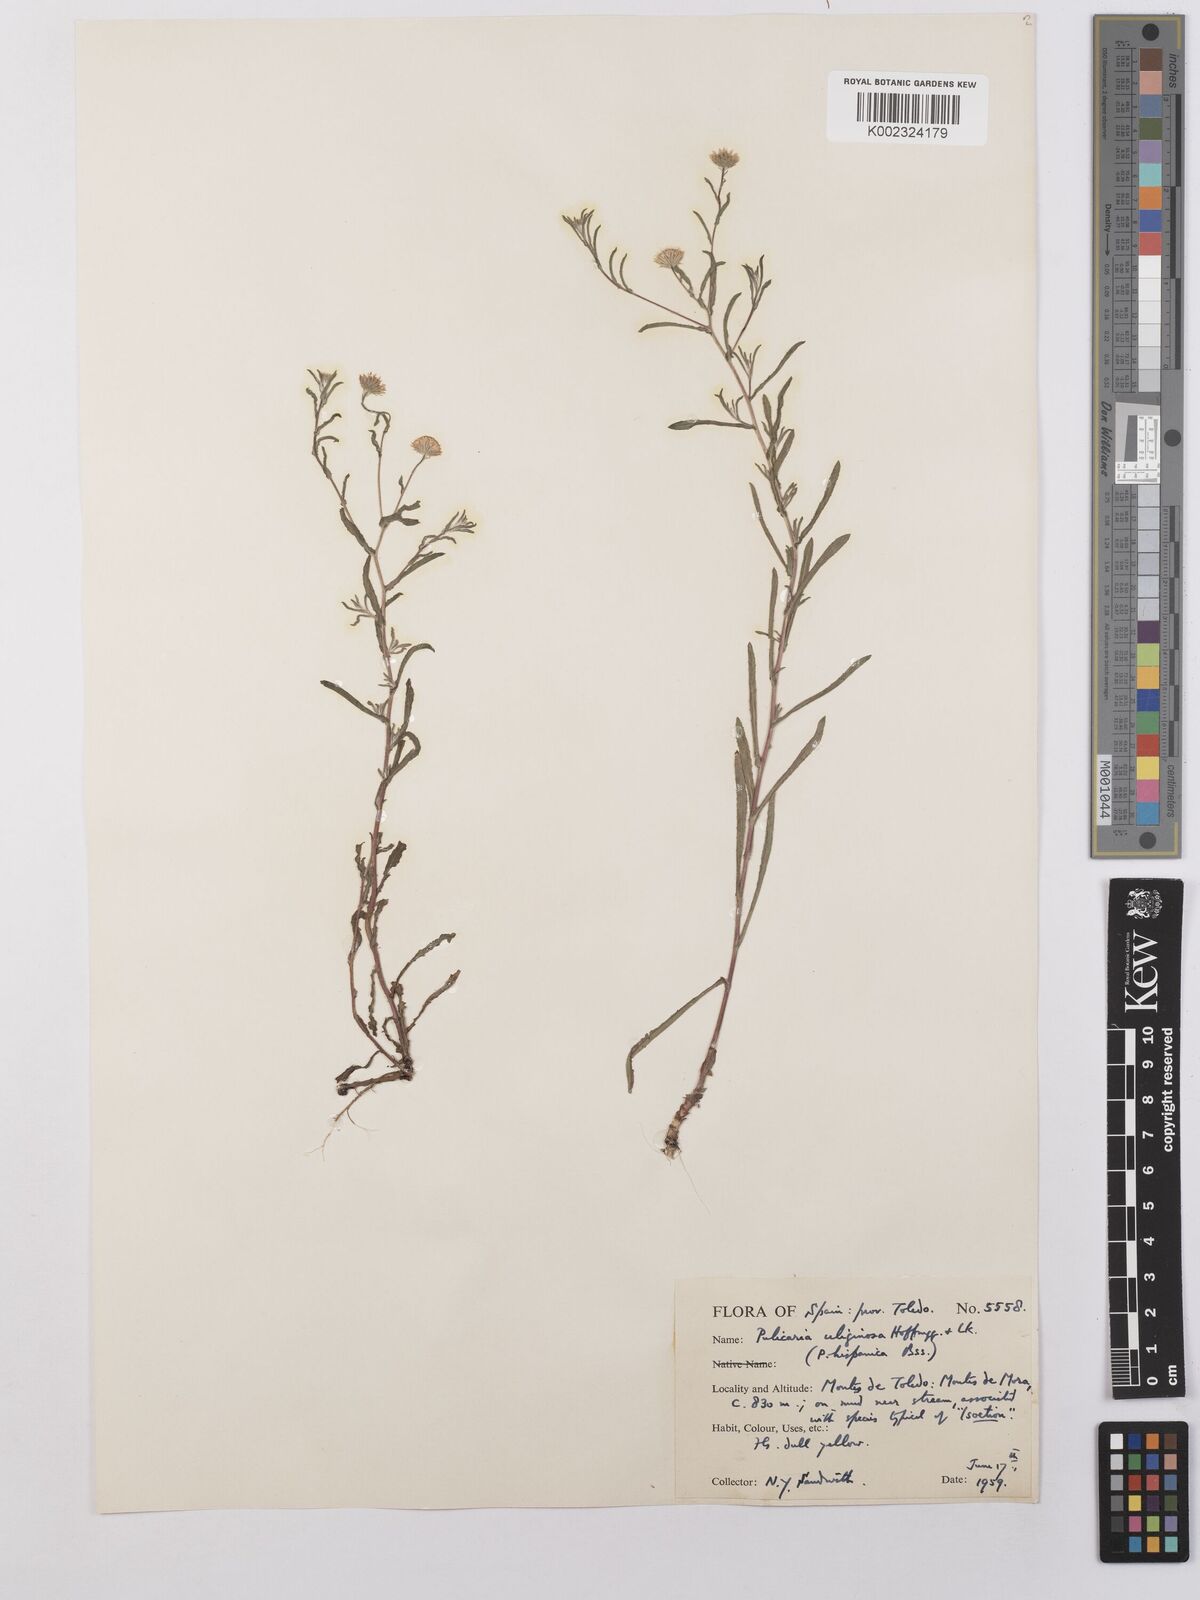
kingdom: Plantae
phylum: Tracheophyta
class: Magnoliopsida
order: Asterales
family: Asteraceae
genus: Pulicaria
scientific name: Pulicaria arabica
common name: Ladies' false fleabane
